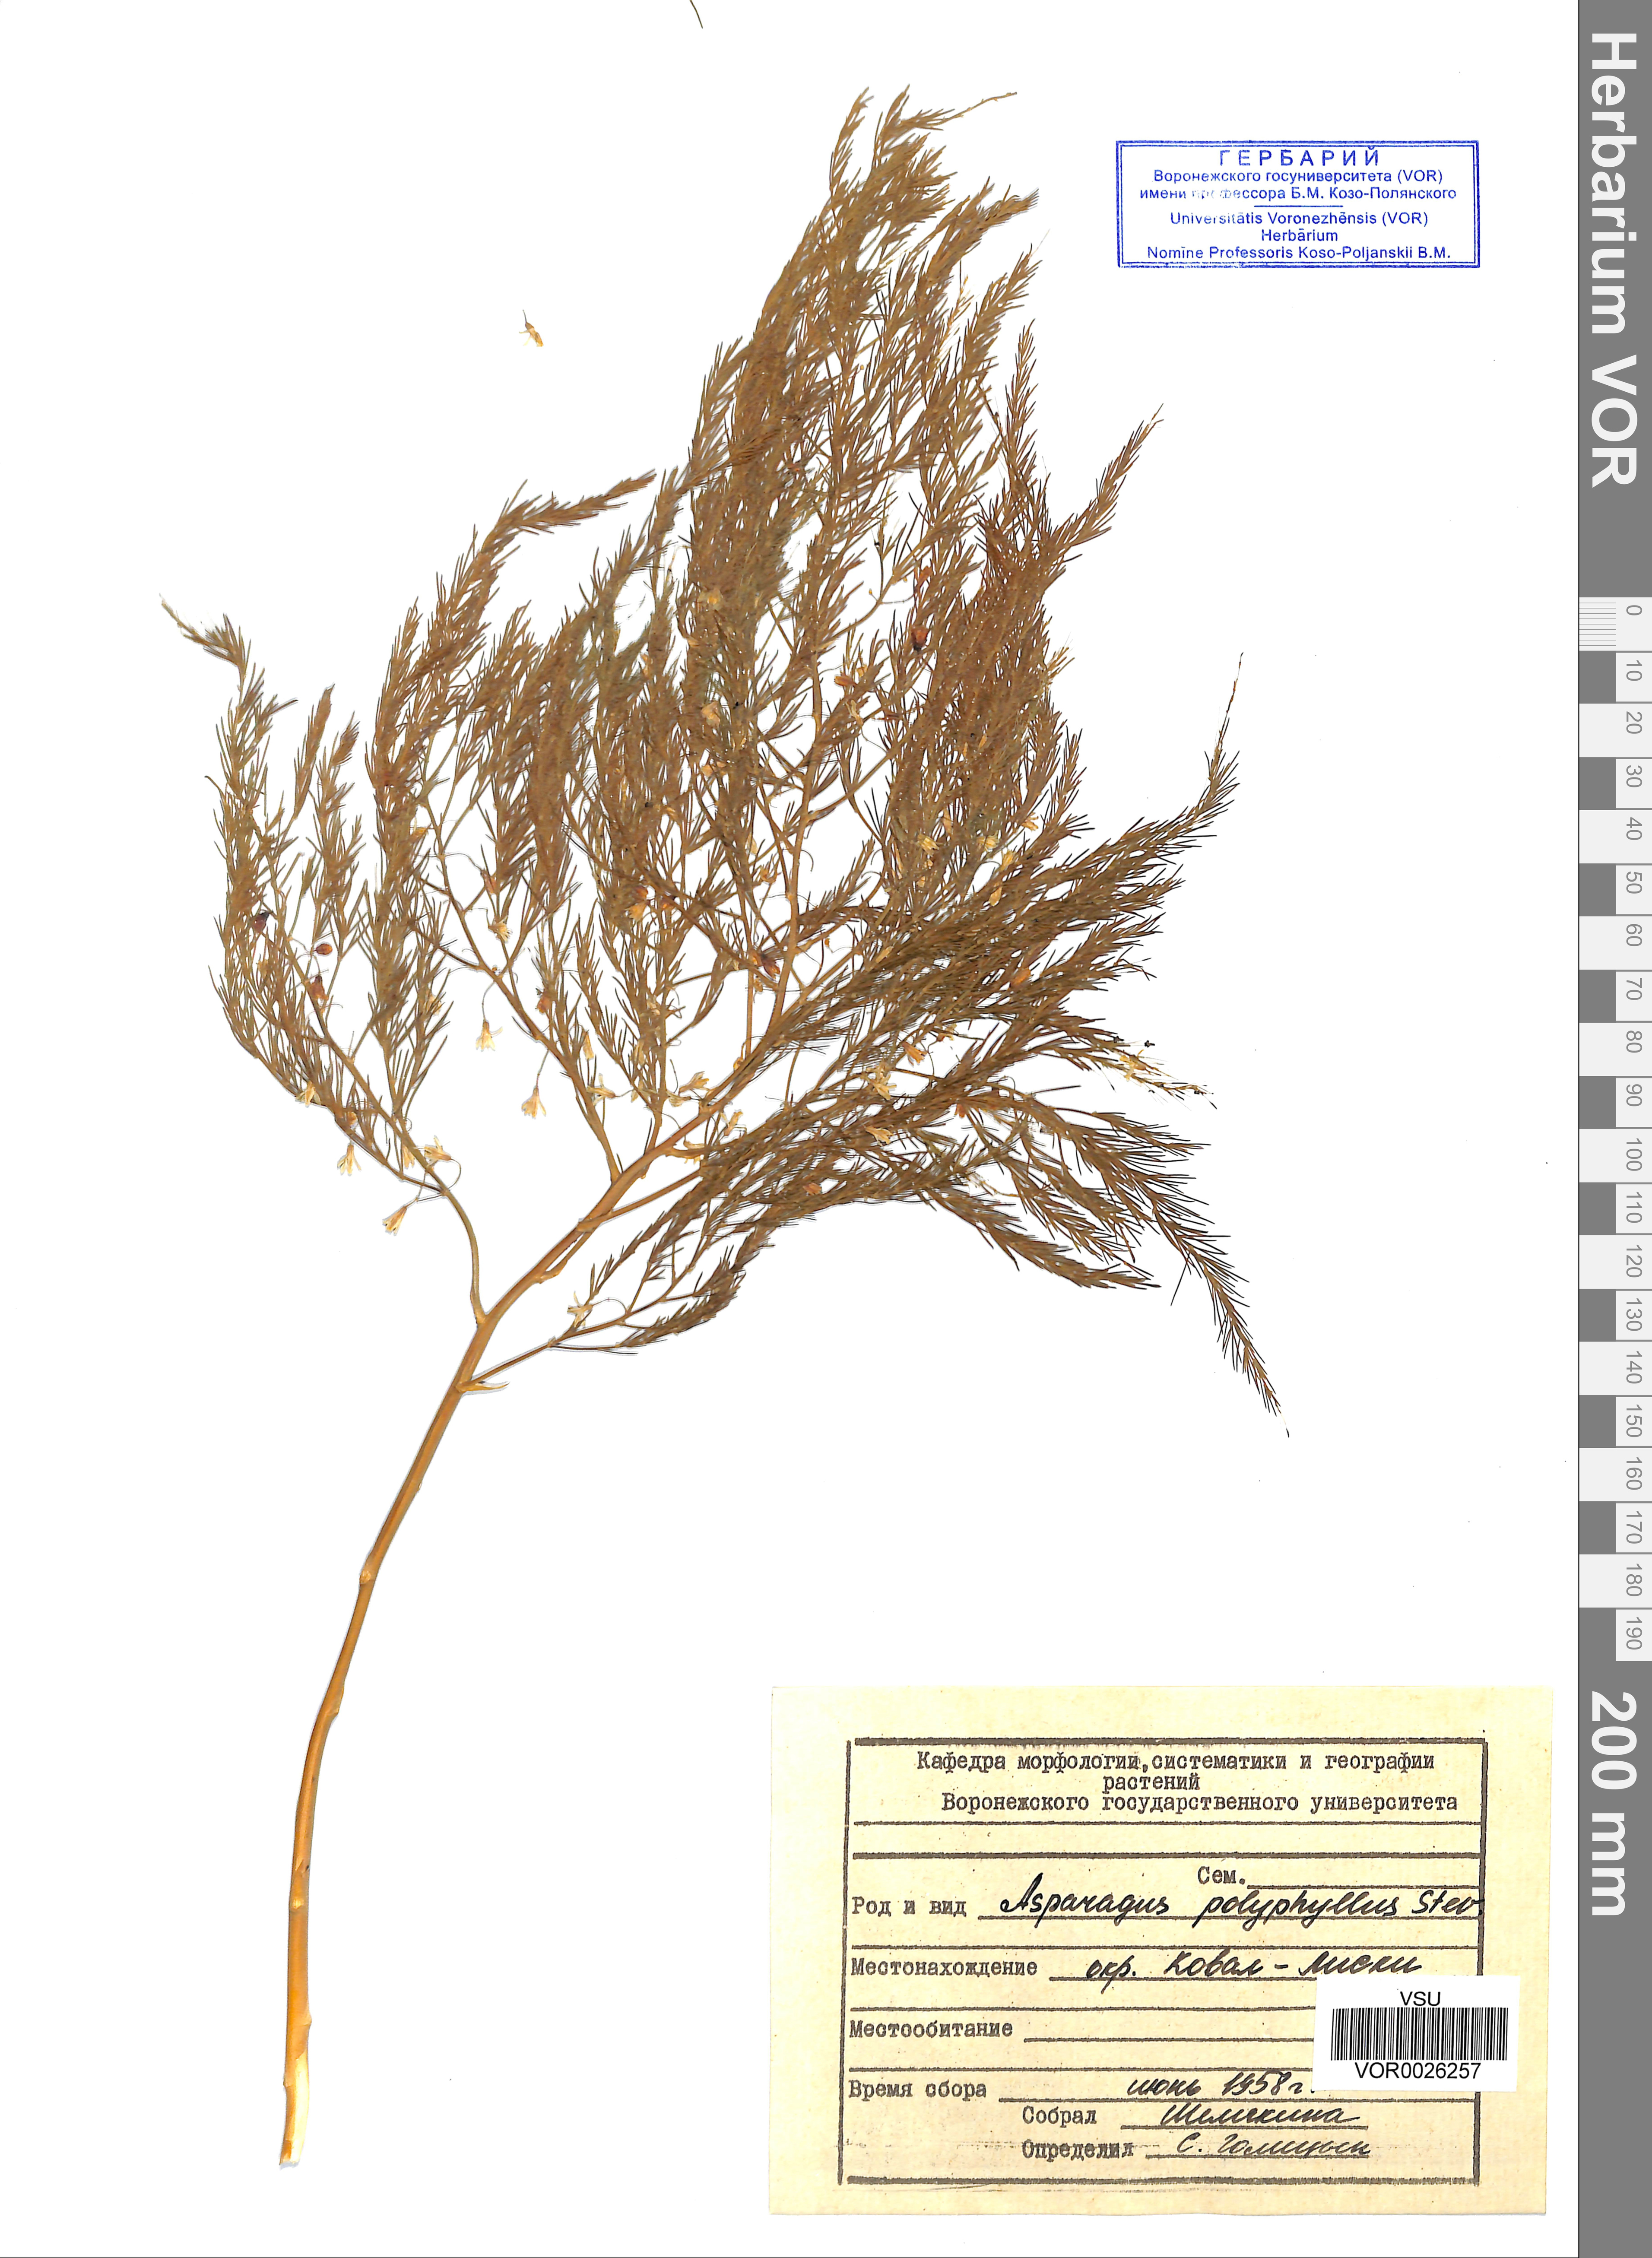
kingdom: Plantae
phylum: Tracheophyta
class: Liliopsida
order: Asparagales
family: Asparagaceae
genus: Asparagus
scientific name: Asparagus officinalis
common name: Garden asparagus
